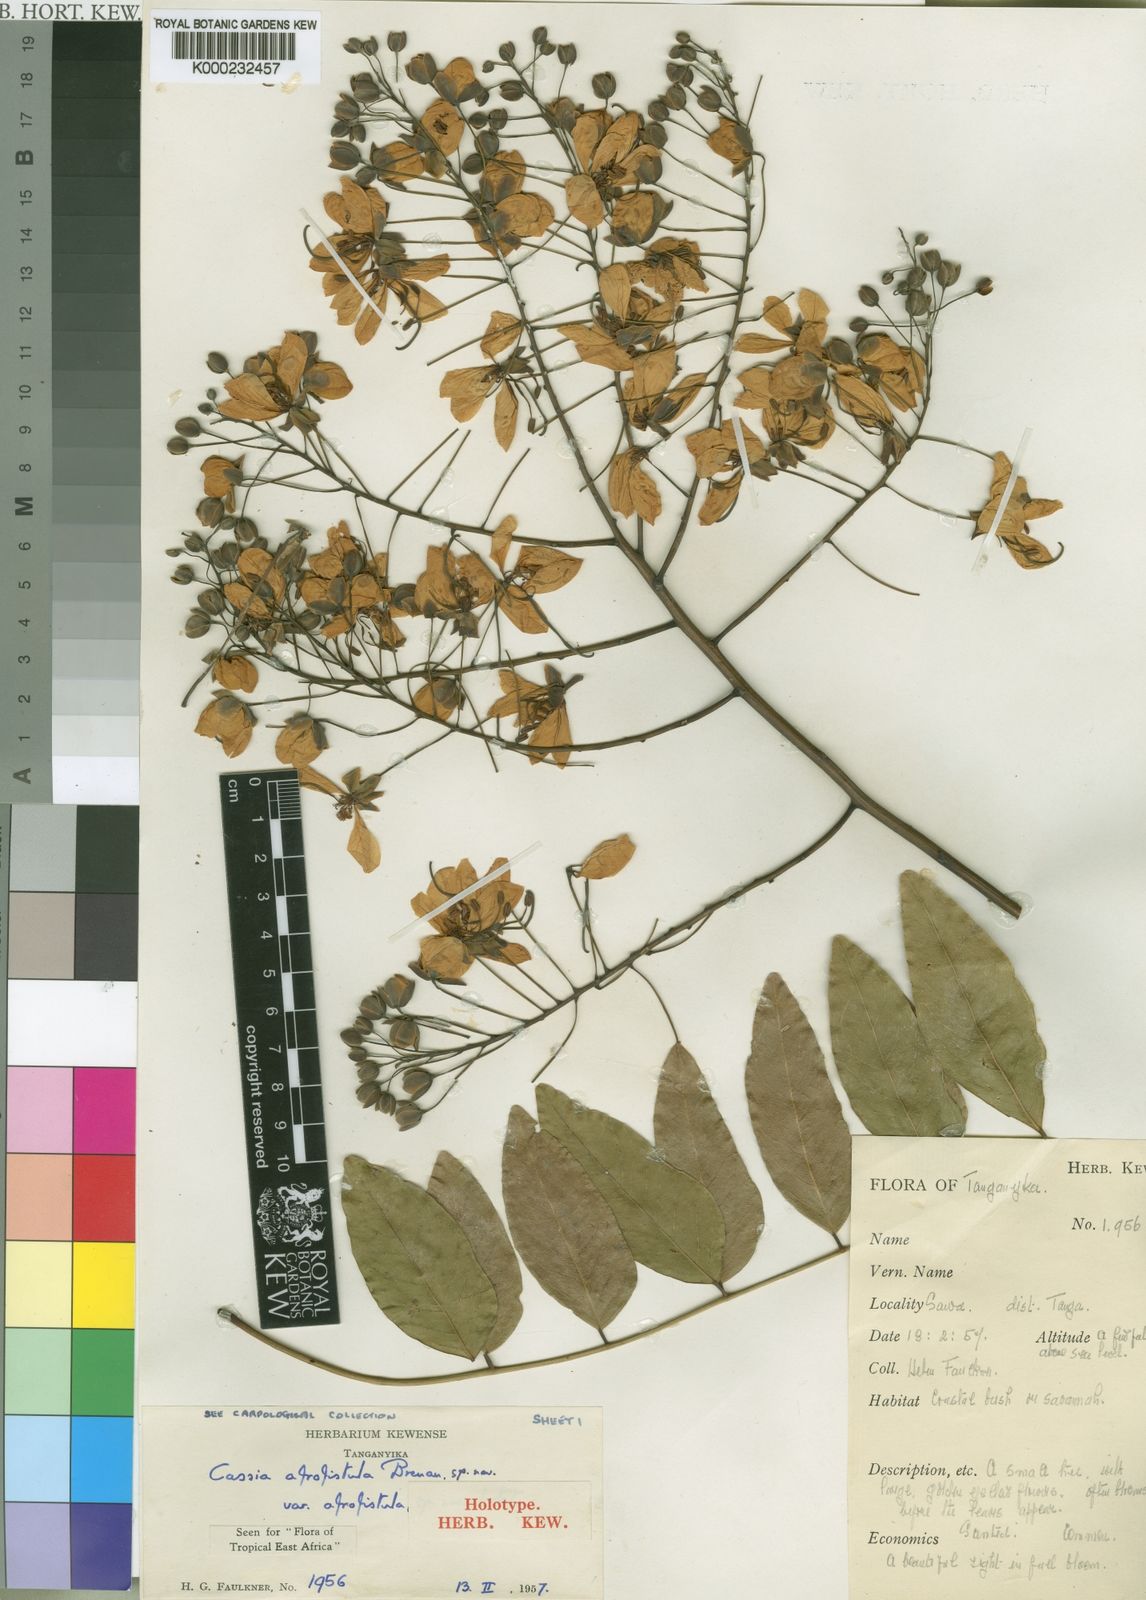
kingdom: Plantae
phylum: Tracheophyta
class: Magnoliopsida
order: Fabales
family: Fabaceae
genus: Cassia
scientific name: Cassia afrofistula
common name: Kenyan shower
